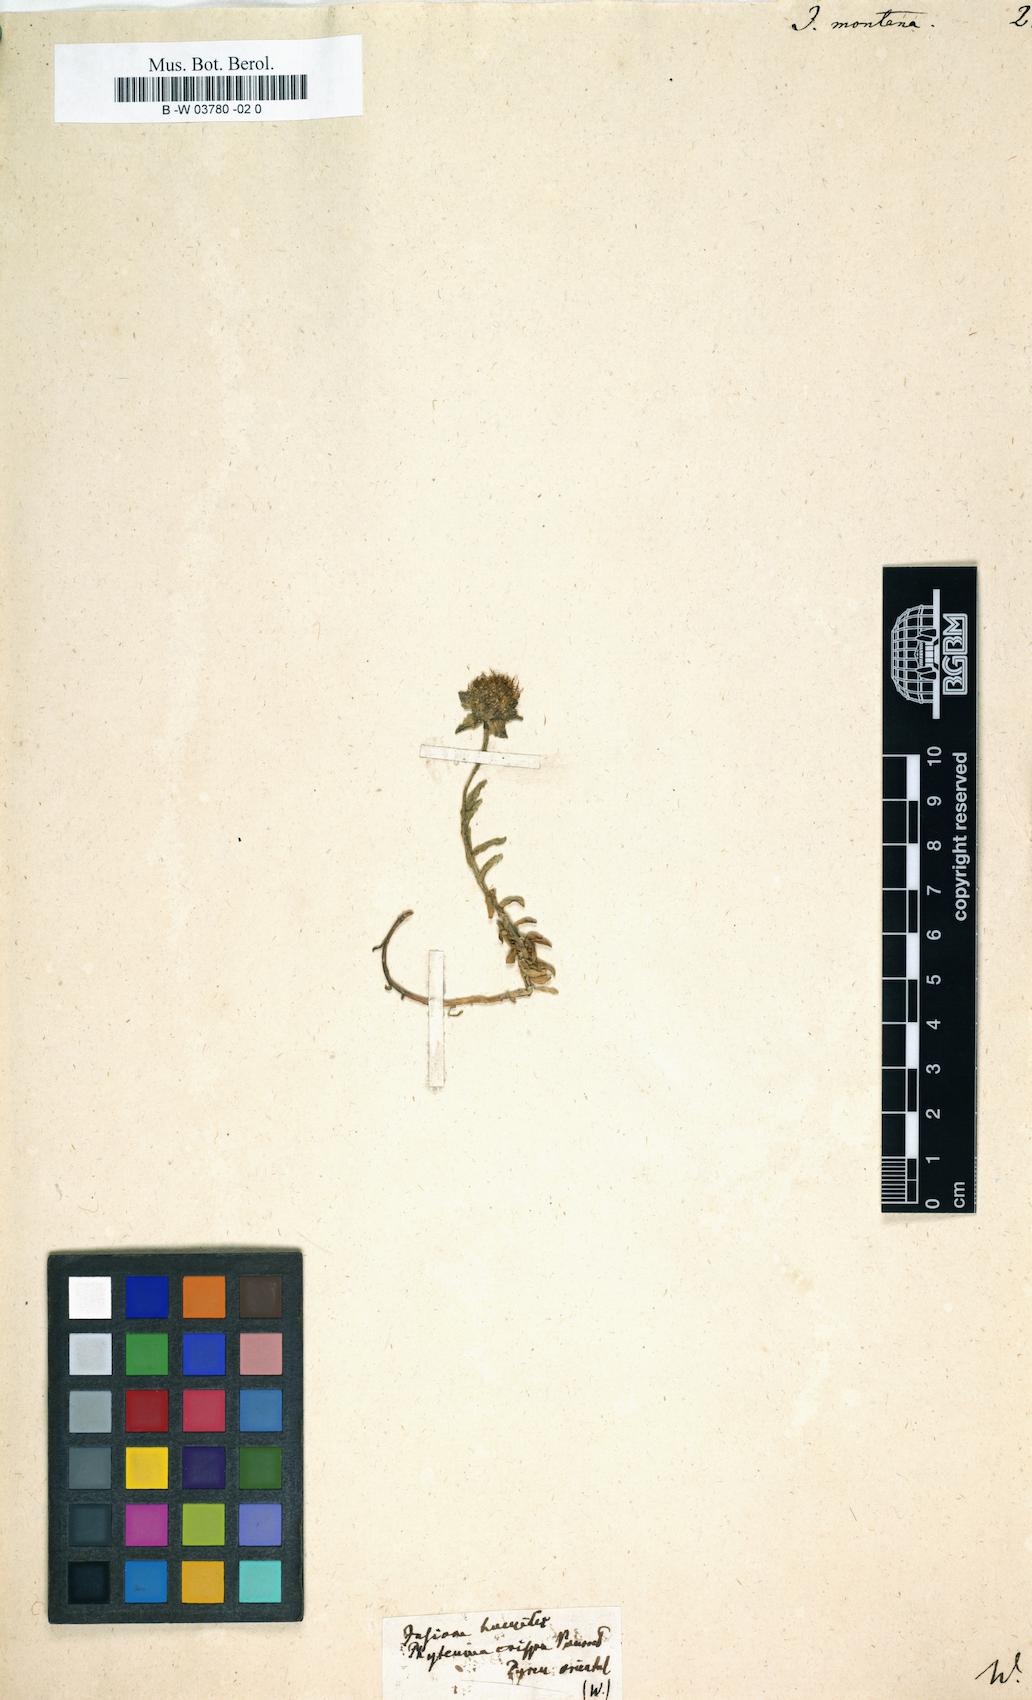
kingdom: Plantae
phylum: Tracheophyta
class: Magnoliopsida
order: Asterales
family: Campanulaceae
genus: Jasione
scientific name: Jasione montana
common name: Sheep's-bit
